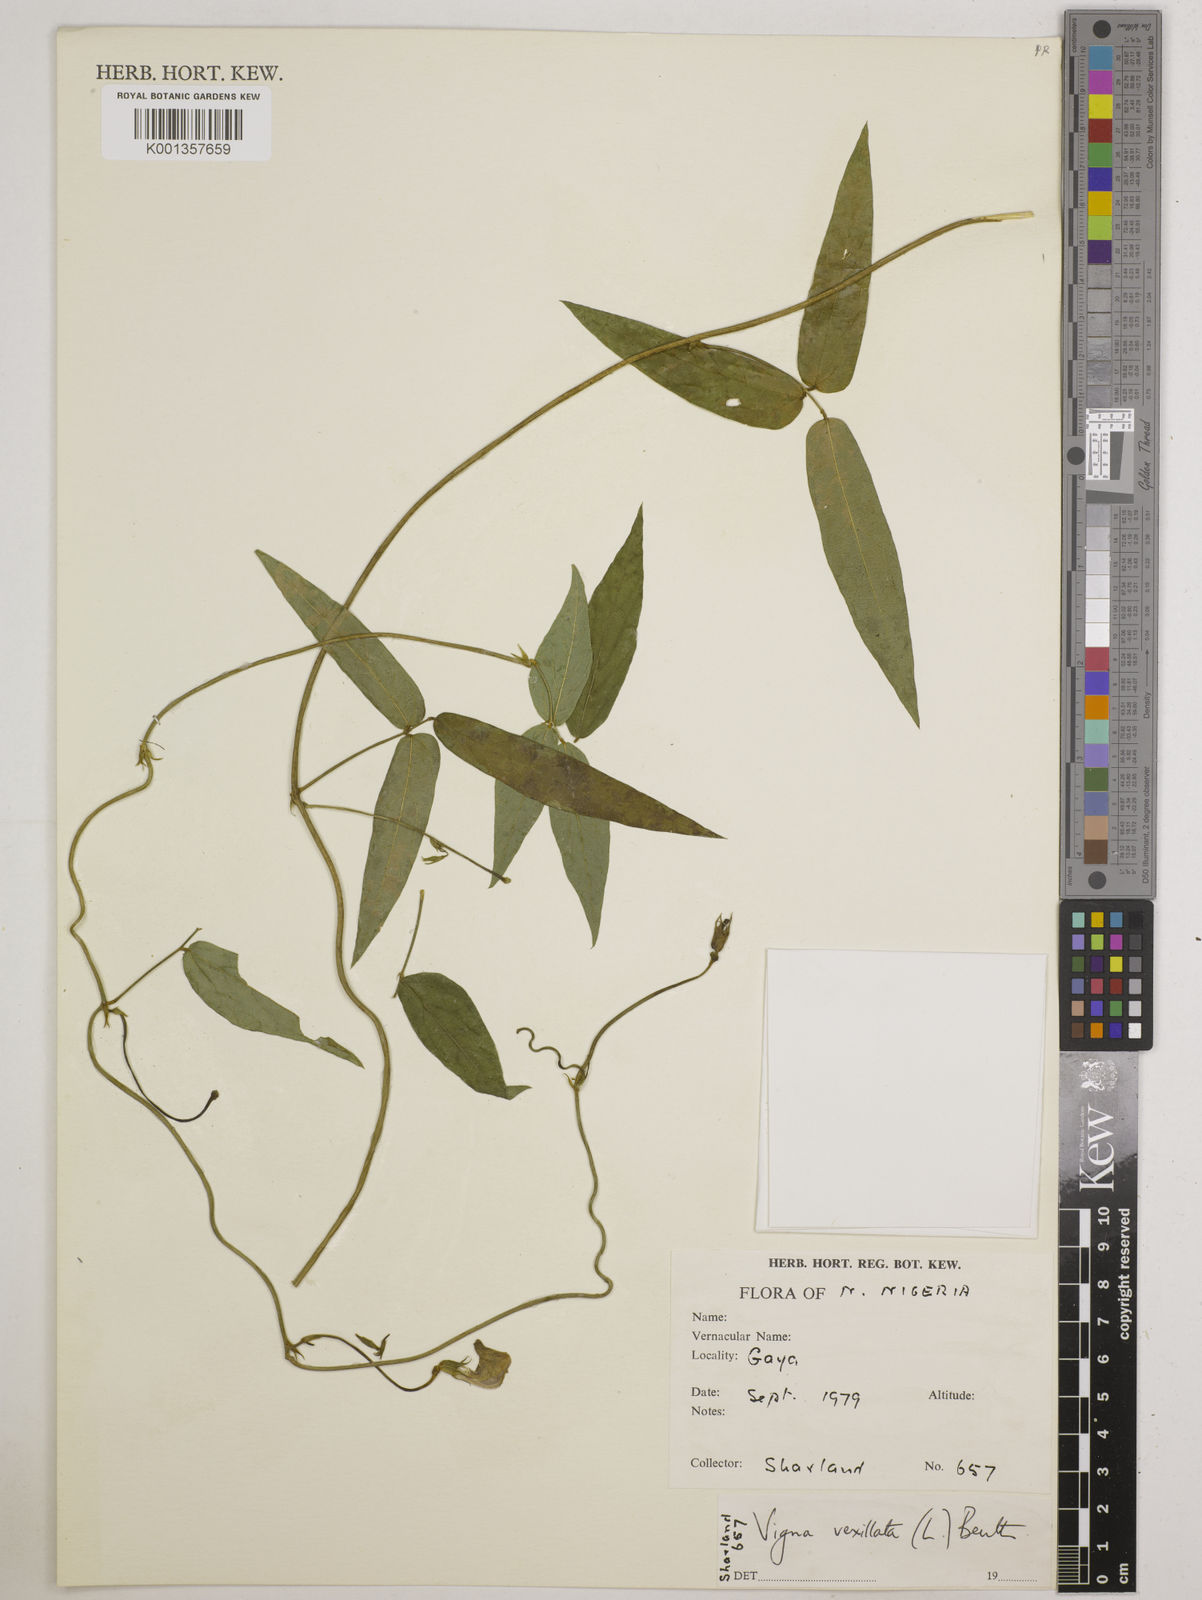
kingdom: Plantae
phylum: Tracheophyta
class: Magnoliopsida
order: Fabales
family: Fabaceae
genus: Vigna
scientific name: Vigna vexillata
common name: Zombi pea
